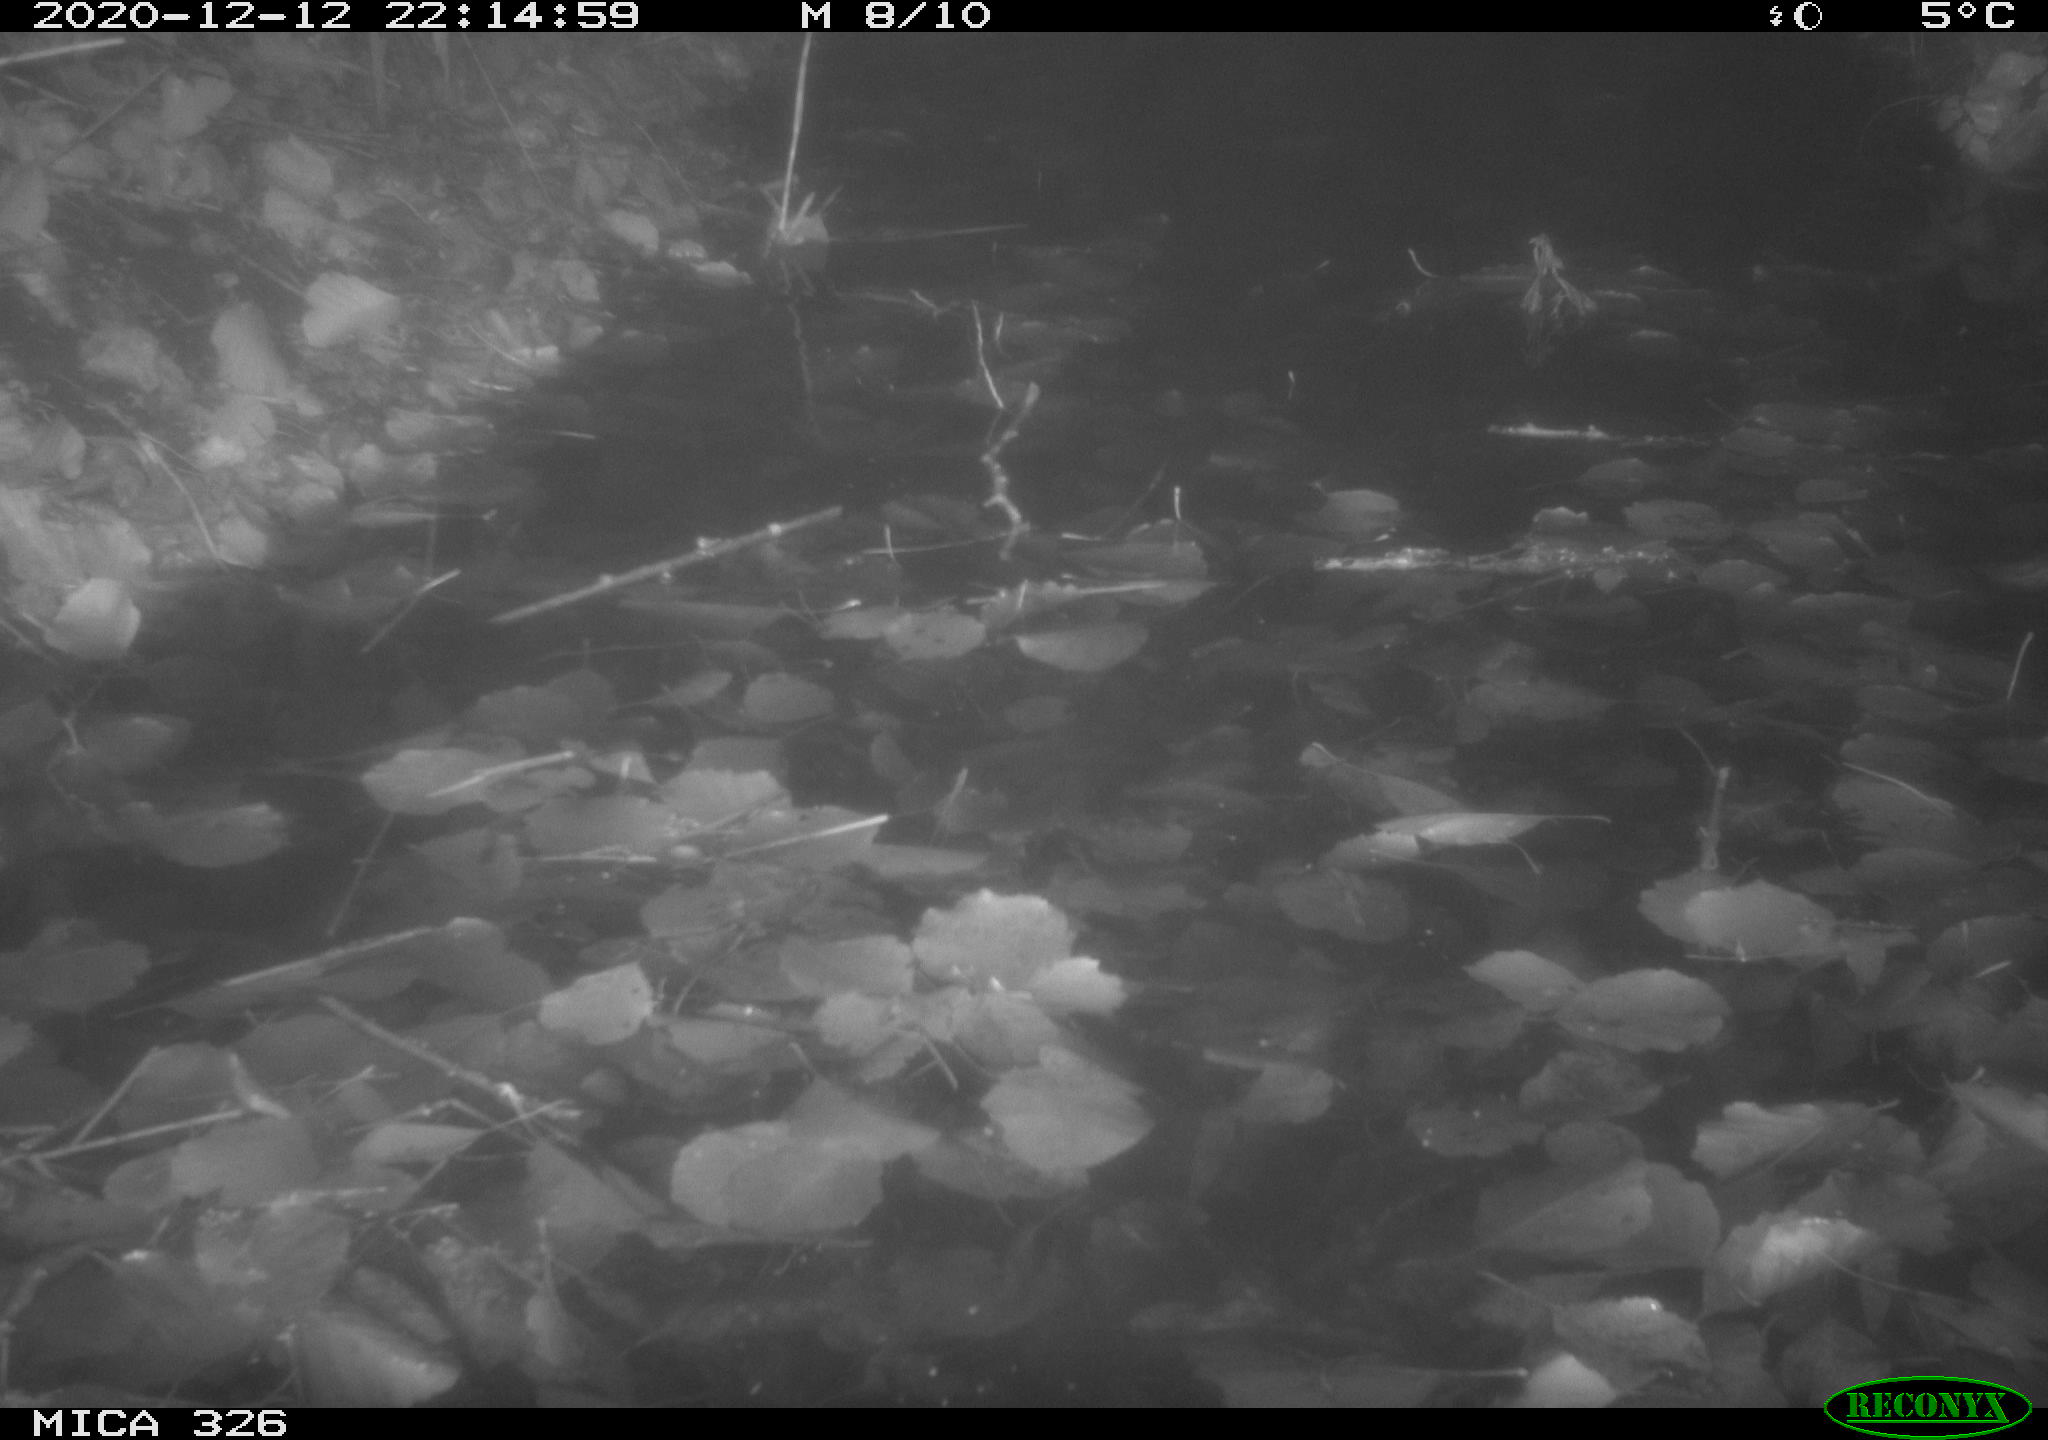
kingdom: Animalia
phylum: Chordata
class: Mammalia
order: Rodentia
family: Cricetidae
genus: Ondatra
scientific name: Ondatra zibethicus
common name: Muskrat
